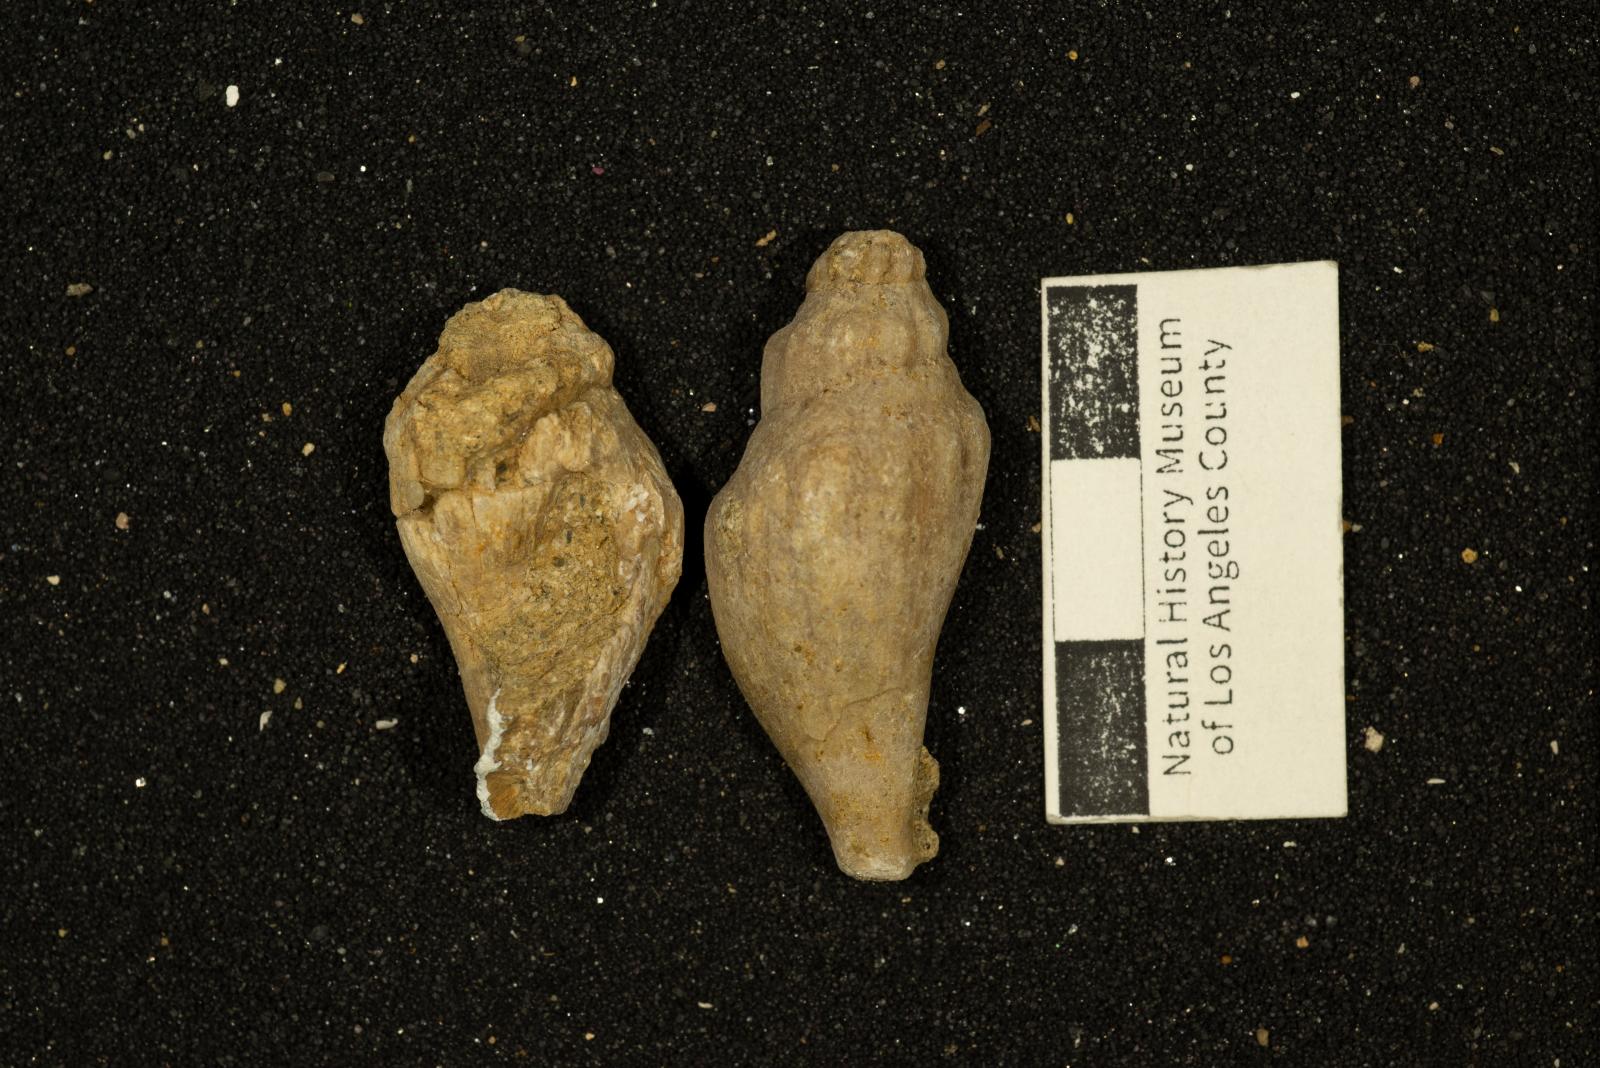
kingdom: Animalia
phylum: Mollusca
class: Gastropoda
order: Neogastropoda
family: Volutidae
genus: Varens
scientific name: Varens formosus
